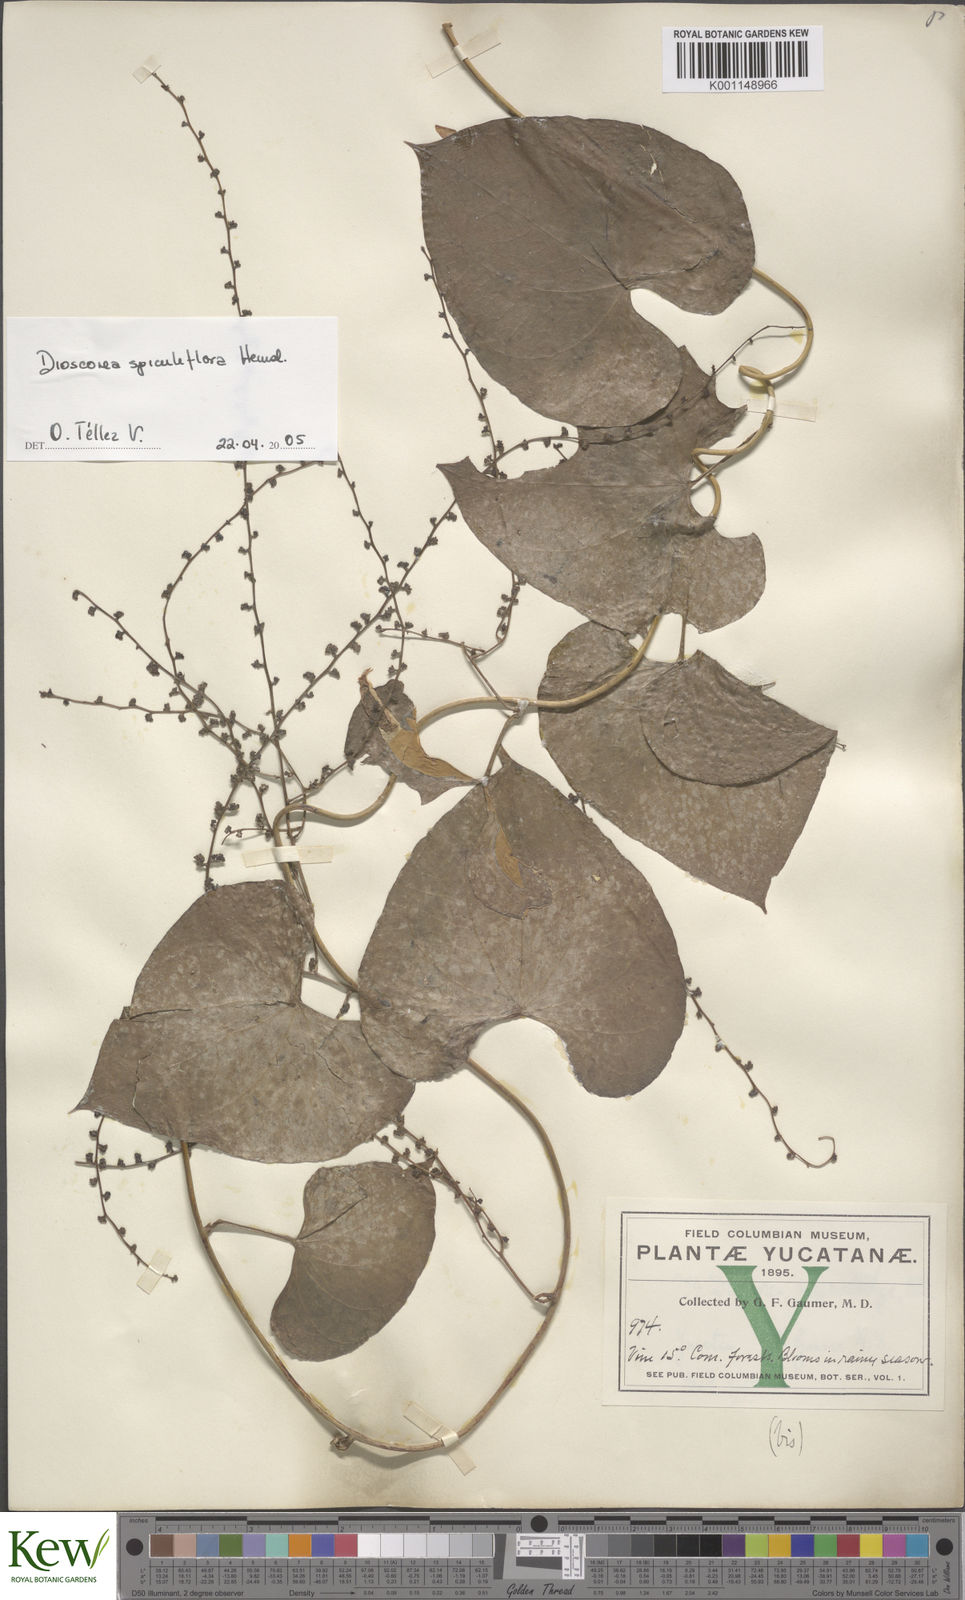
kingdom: Plantae
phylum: Tracheophyta
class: Liliopsida
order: Dioscoreales
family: Dioscoreaceae
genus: Dioscorea
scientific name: Dioscorea spiculiflora
